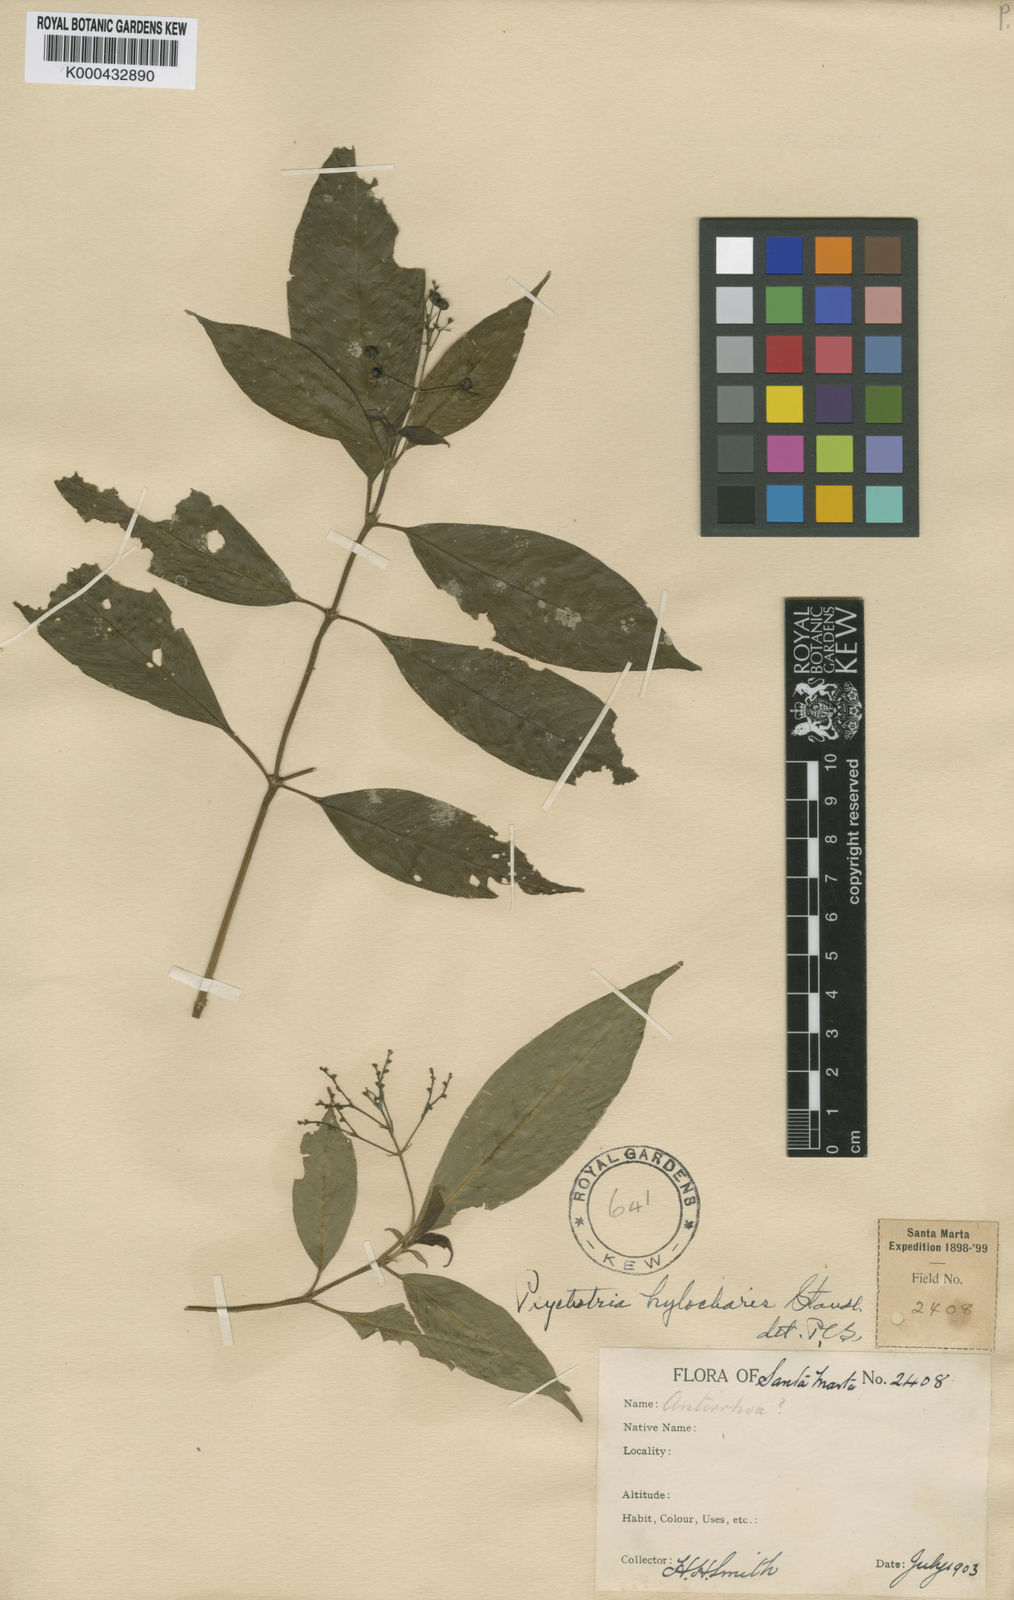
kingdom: Plantae
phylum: Tracheophyta
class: Magnoliopsida
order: Gentianales
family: Rubiaceae
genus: Psychotria
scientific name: Psychotria hylocharis
